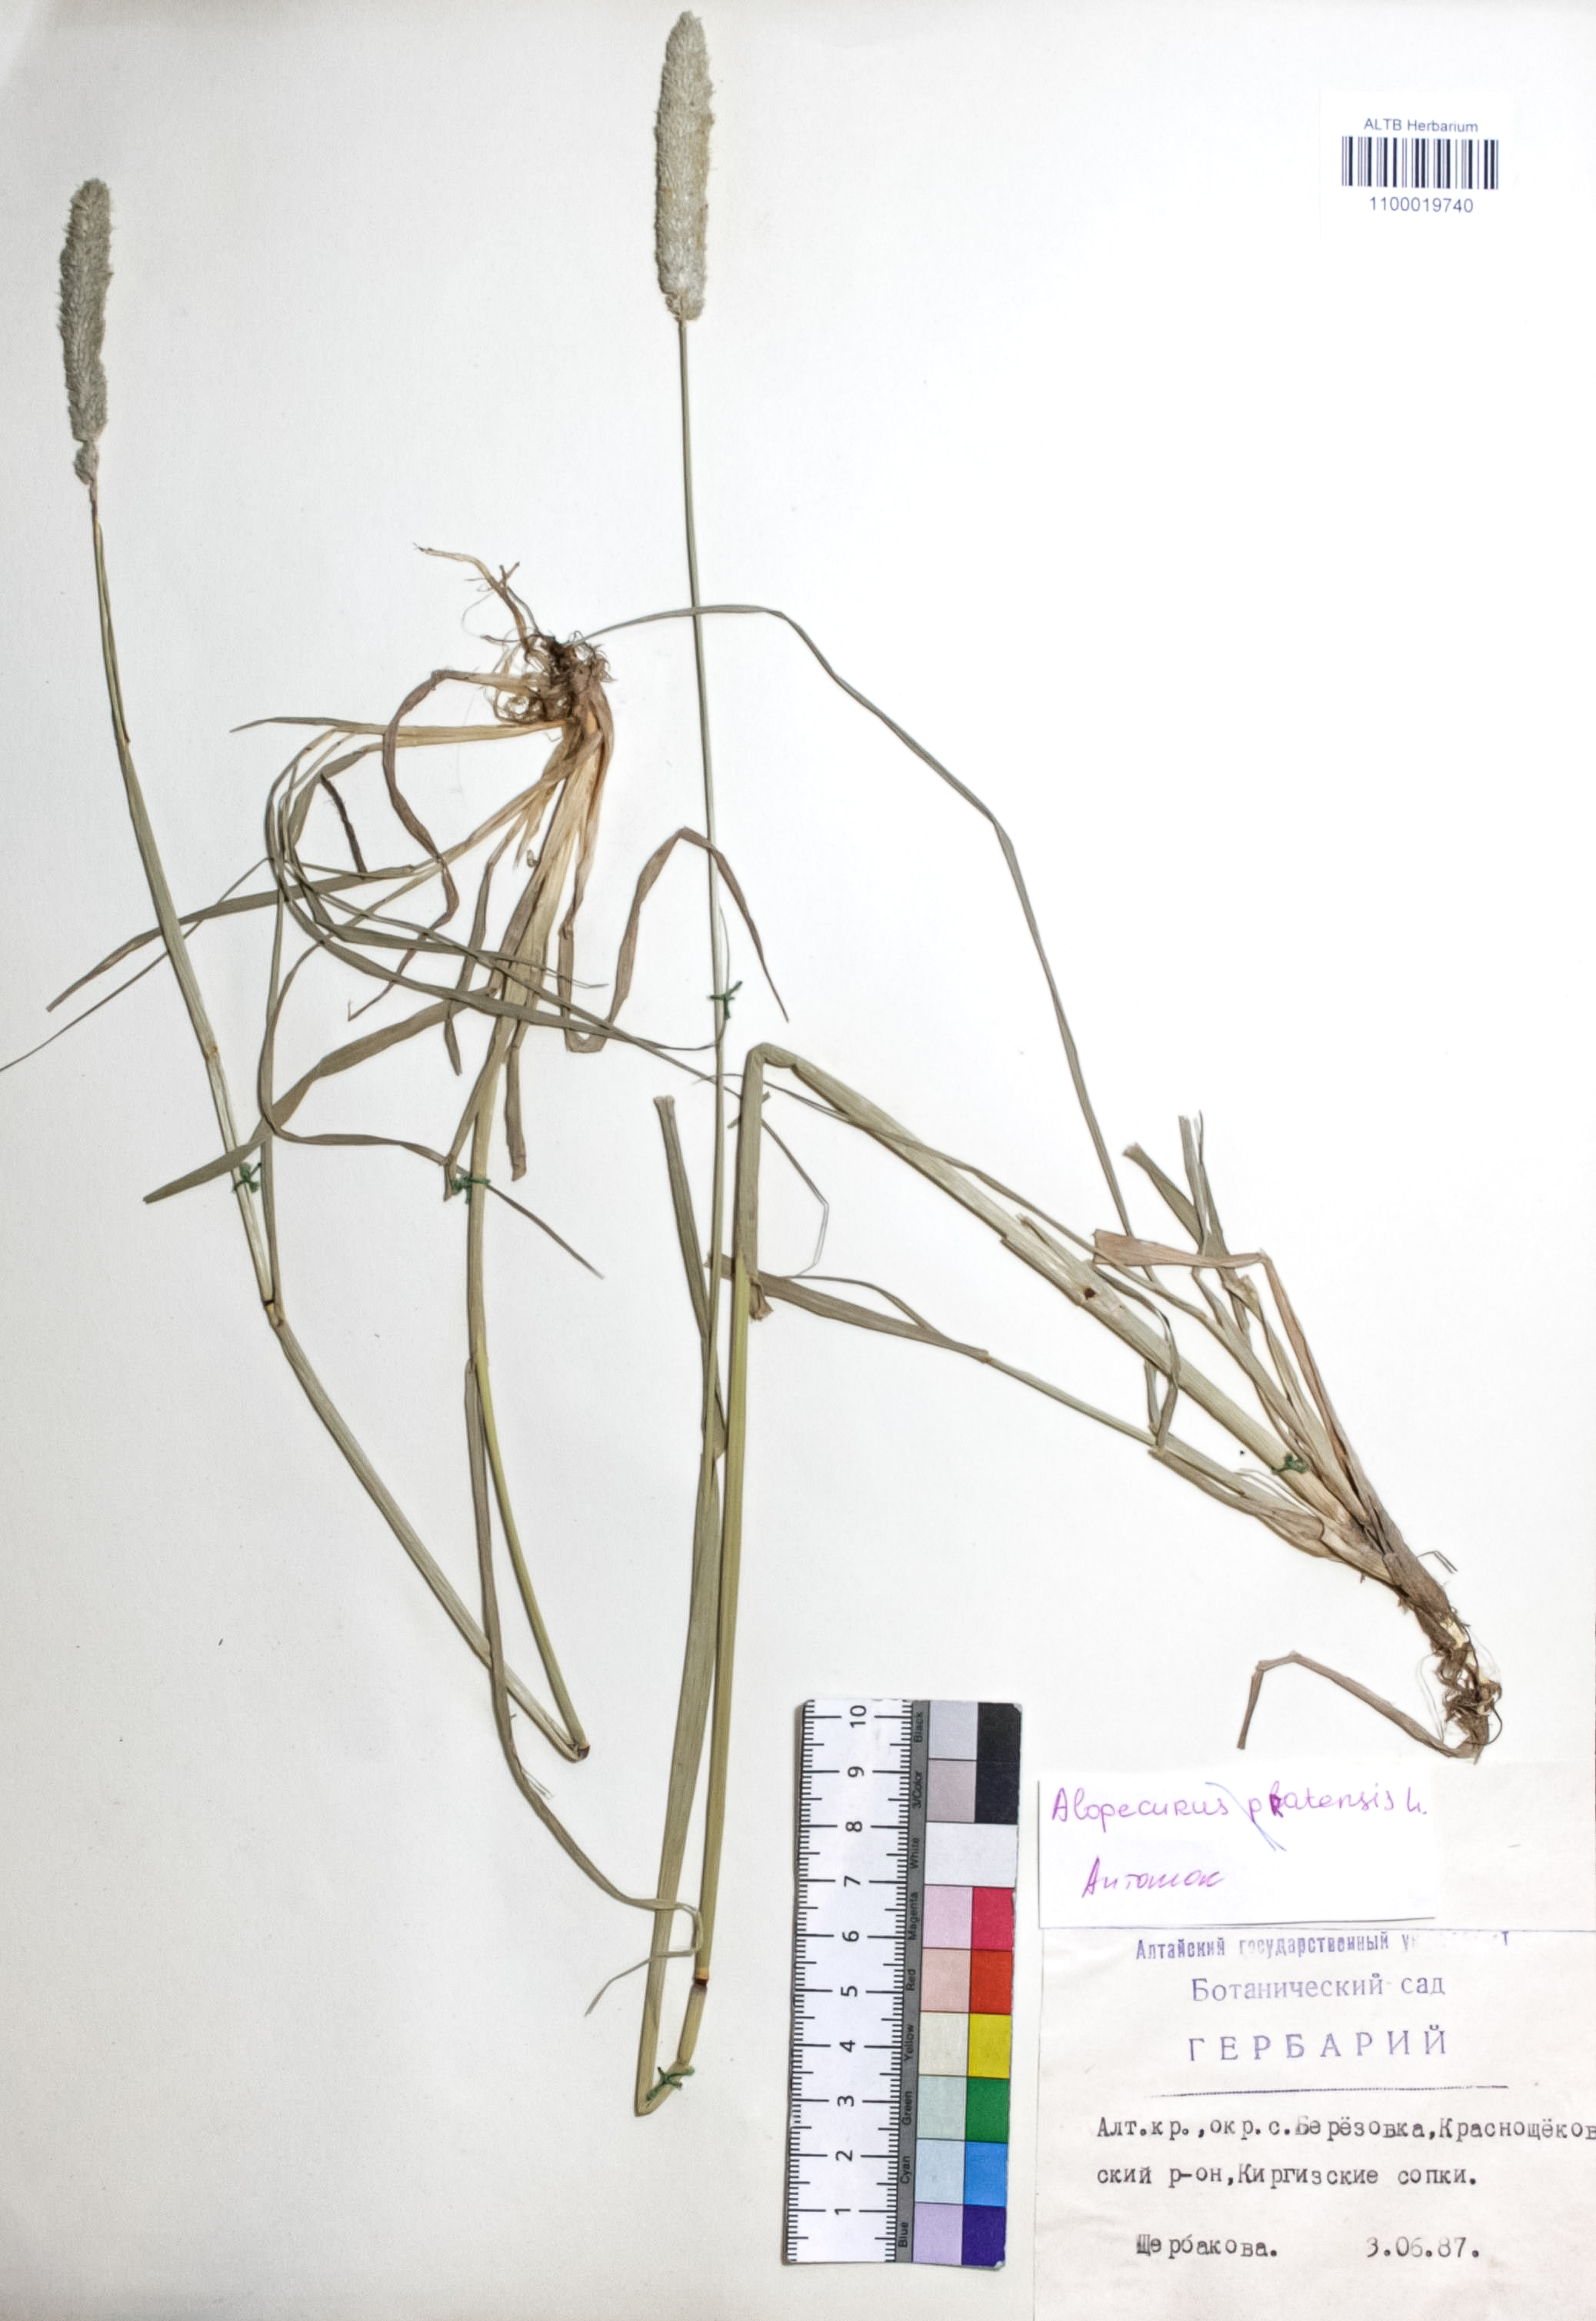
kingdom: Plantae
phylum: Tracheophyta
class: Liliopsida
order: Poales
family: Poaceae
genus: Alopecurus
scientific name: Alopecurus pratensis
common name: Meadow foxtail
